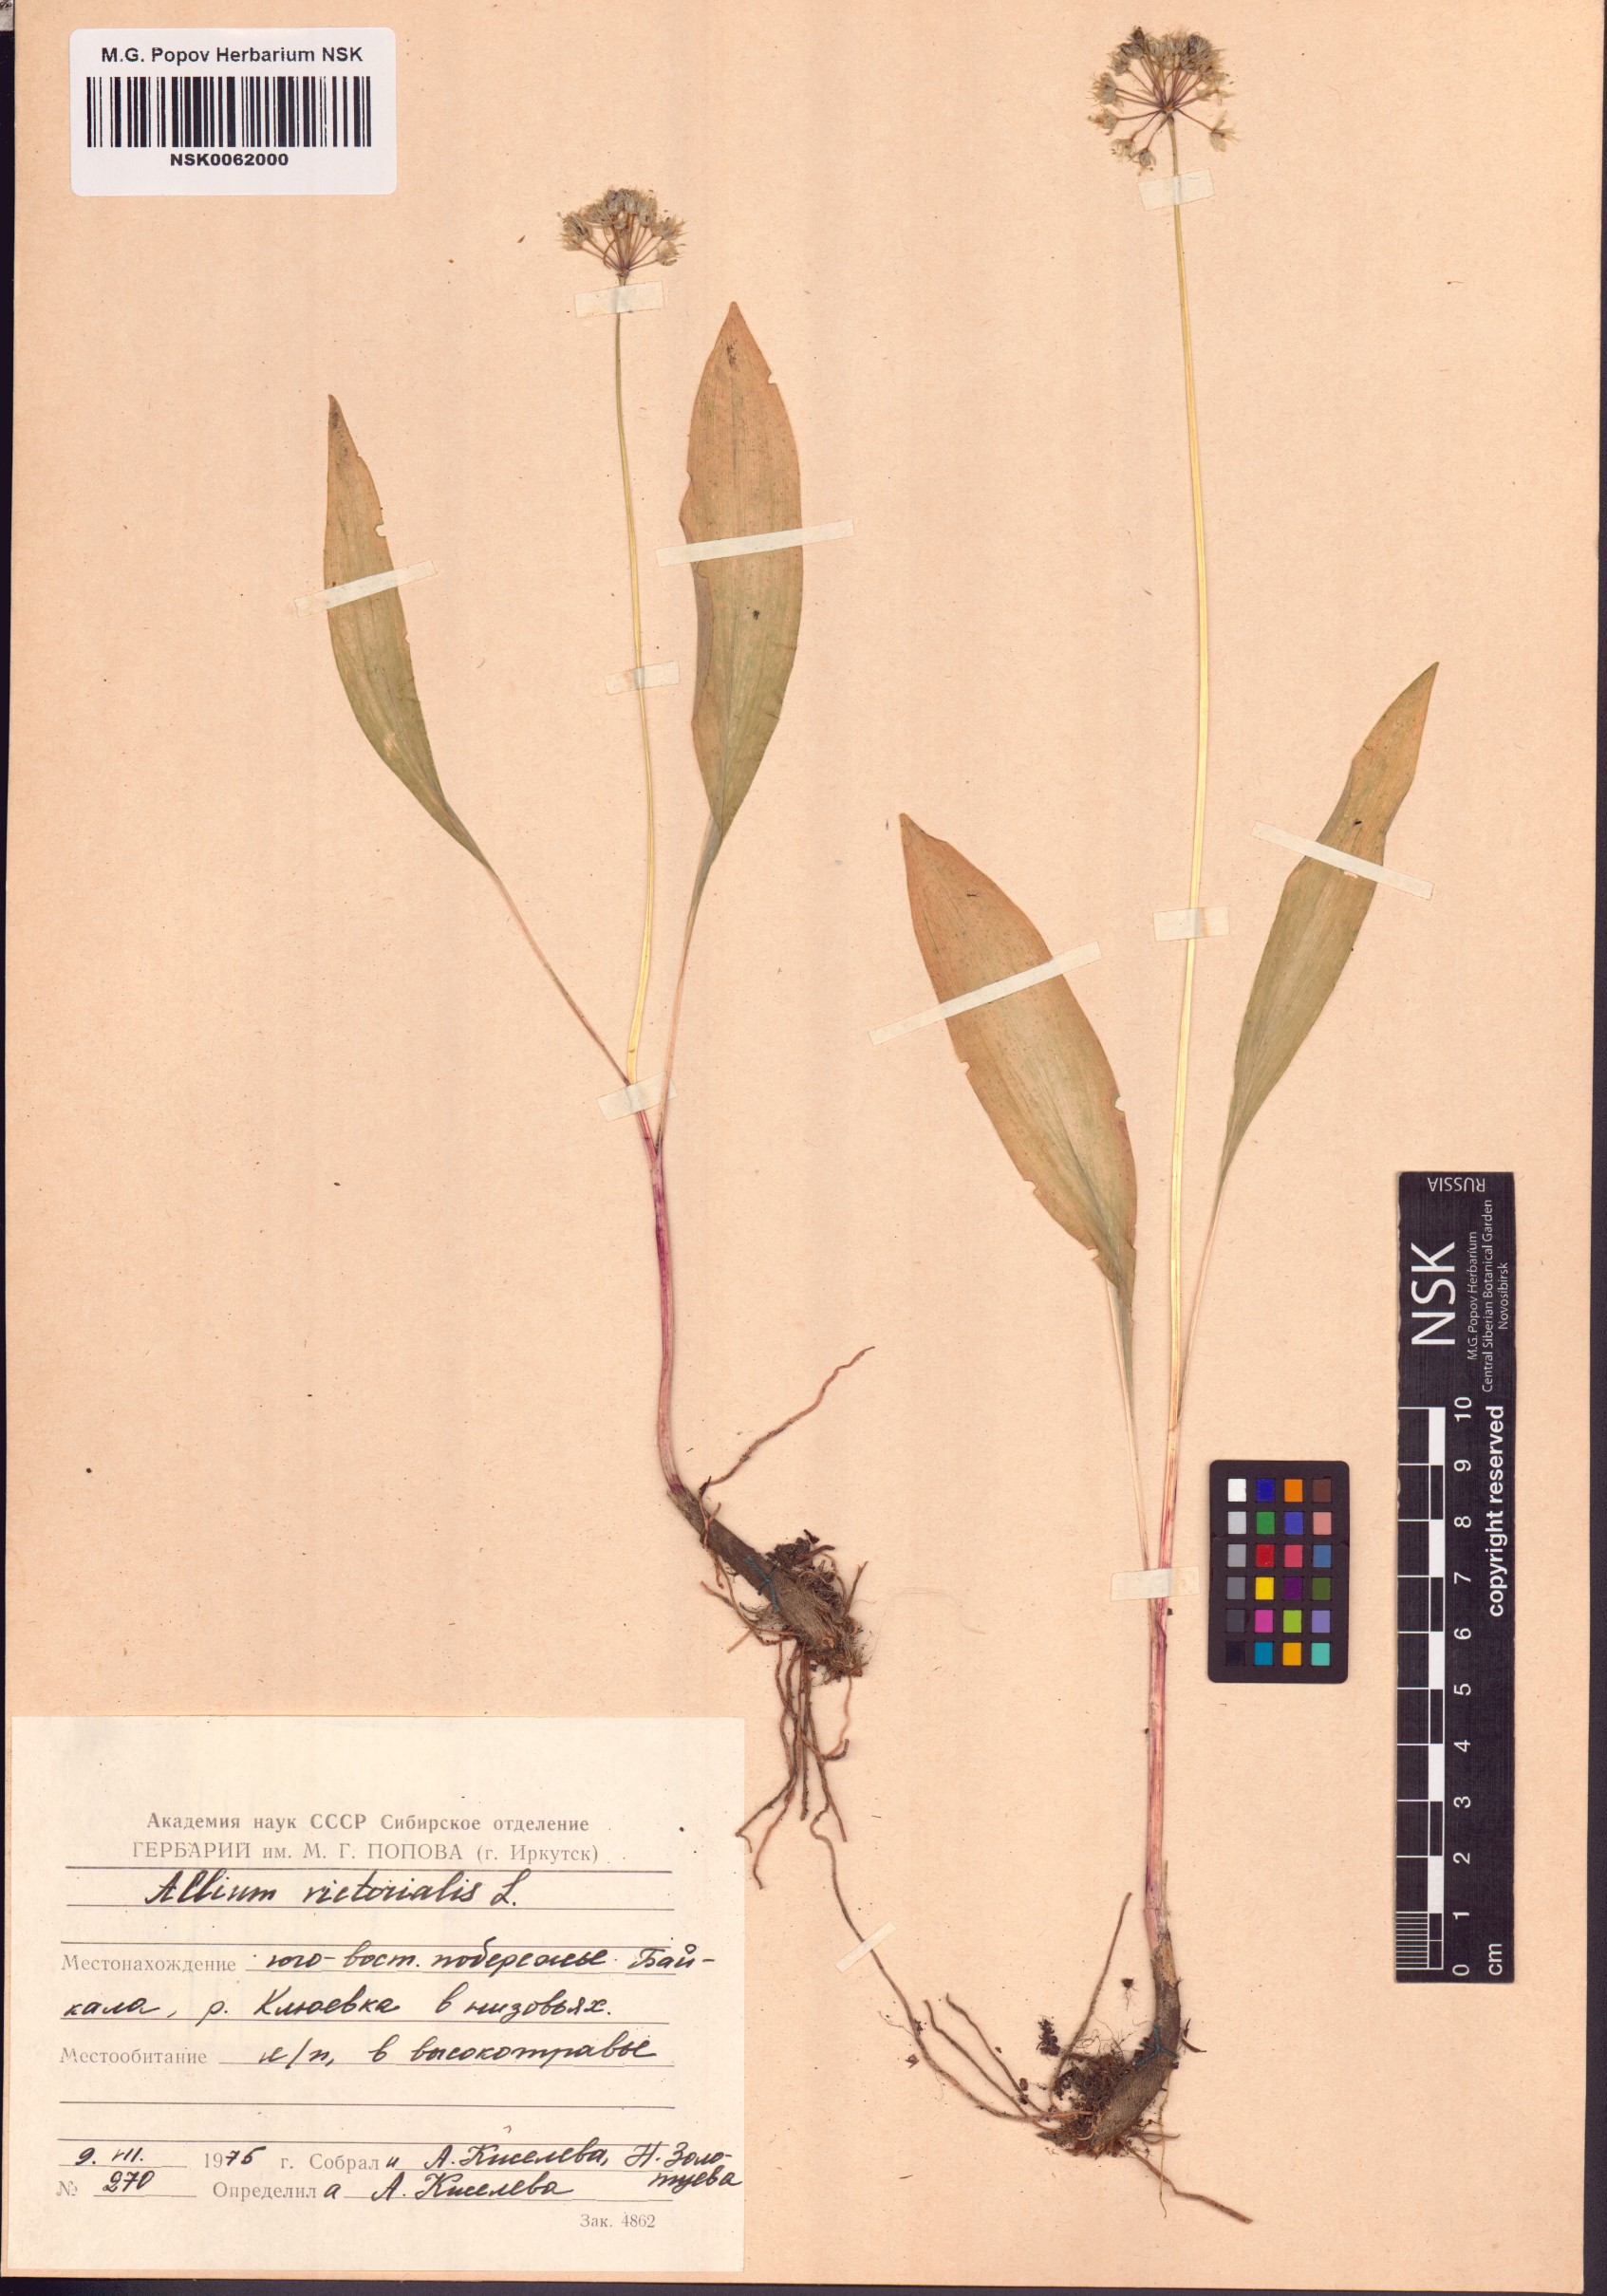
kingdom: Plantae
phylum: Tracheophyta
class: Liliopsida
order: Asparagales
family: Amaryllidaceae
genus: Allium
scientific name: Allium victorialis
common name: Alpine leek
